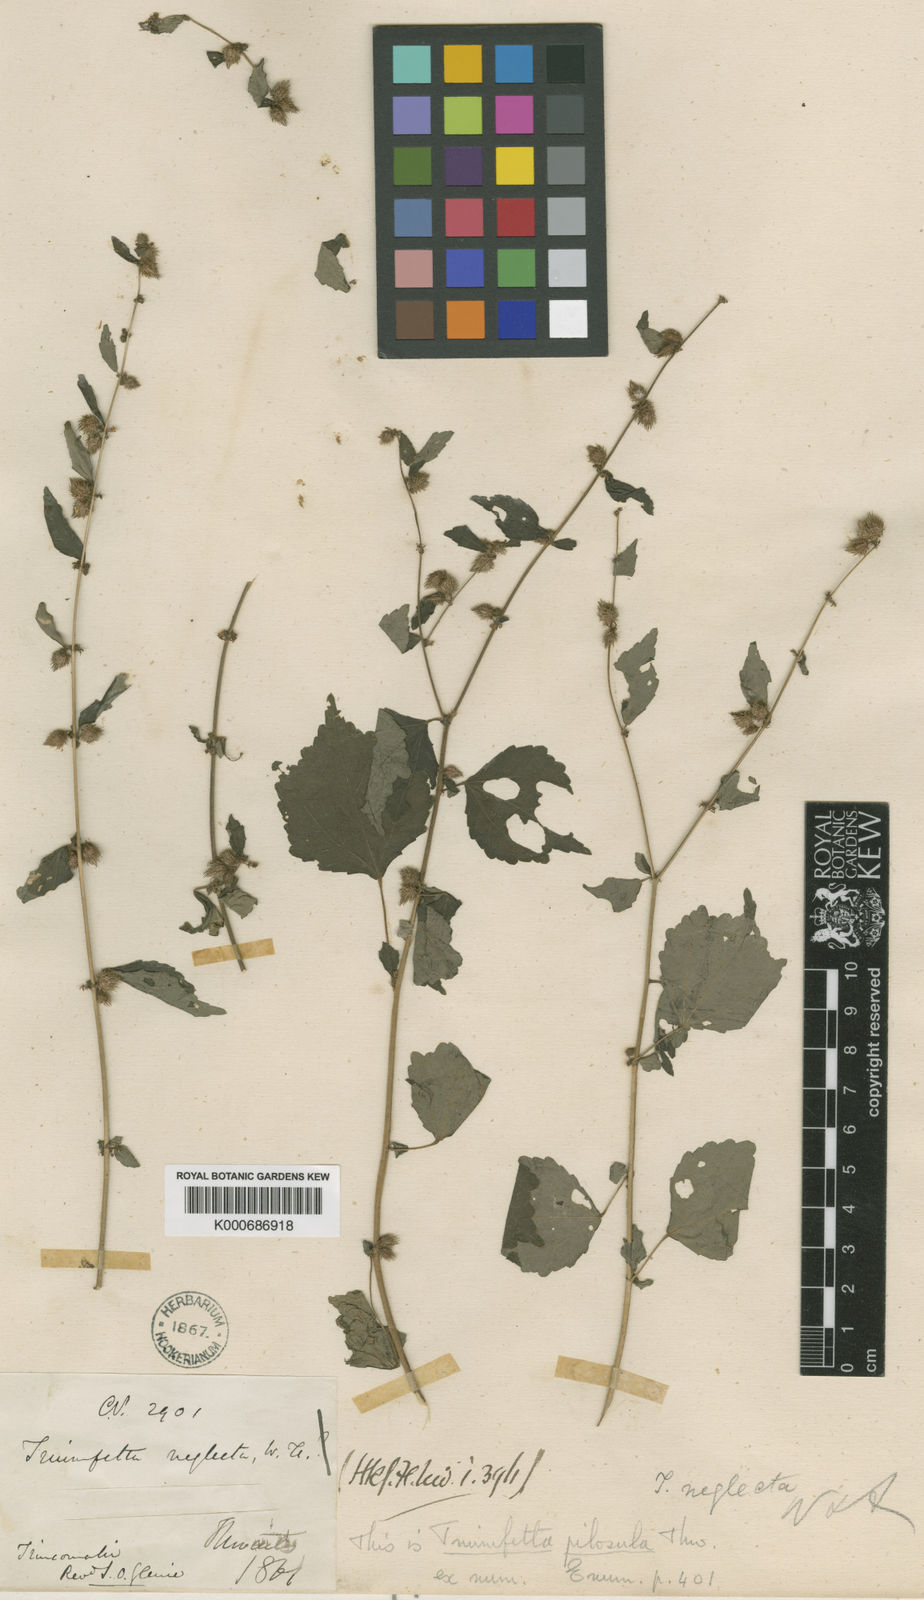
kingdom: Plantae
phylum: Tracheophyta
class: Magnoliopsida
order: Malvales
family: Malvaceae
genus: Triumfetta
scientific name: Triumfetta pentandra
